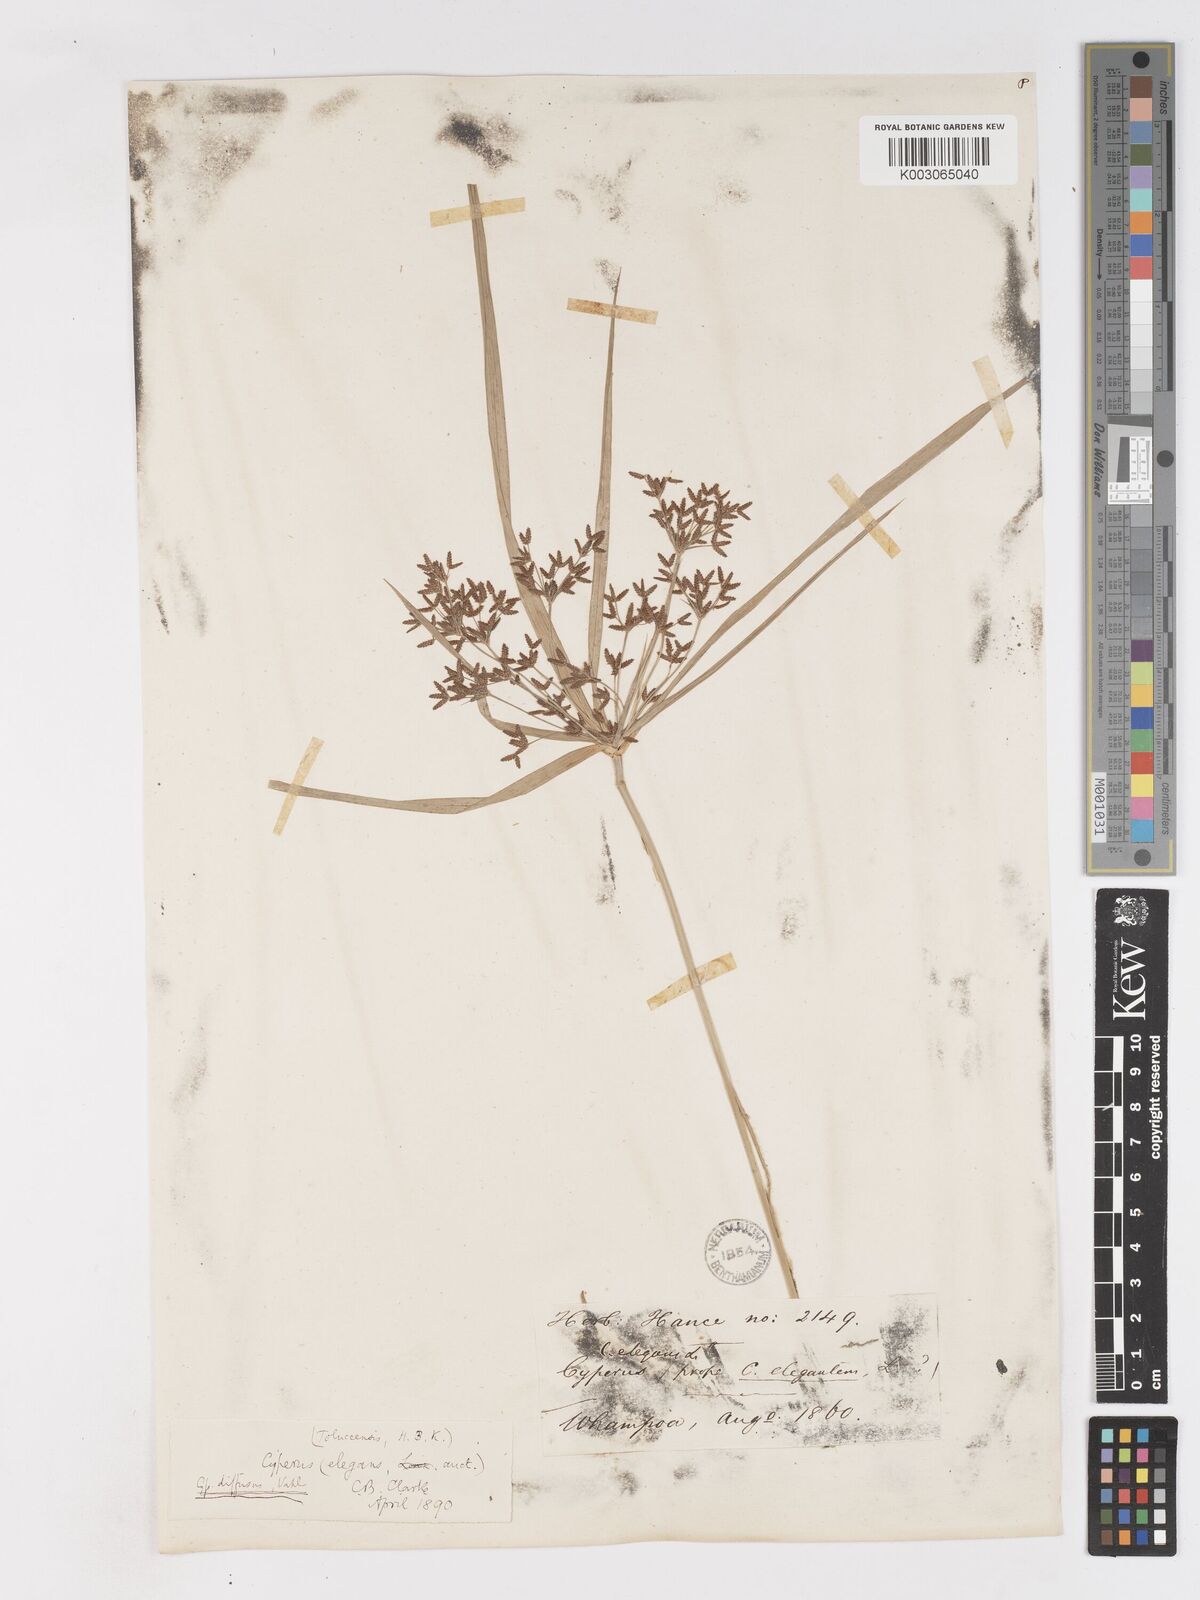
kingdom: Plantae
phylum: Tracheophyta
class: Liliopsida
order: Poales
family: Cyperaceae
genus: Cyperus
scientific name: Cyperus diffusus
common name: Dwarf umbrella grass
